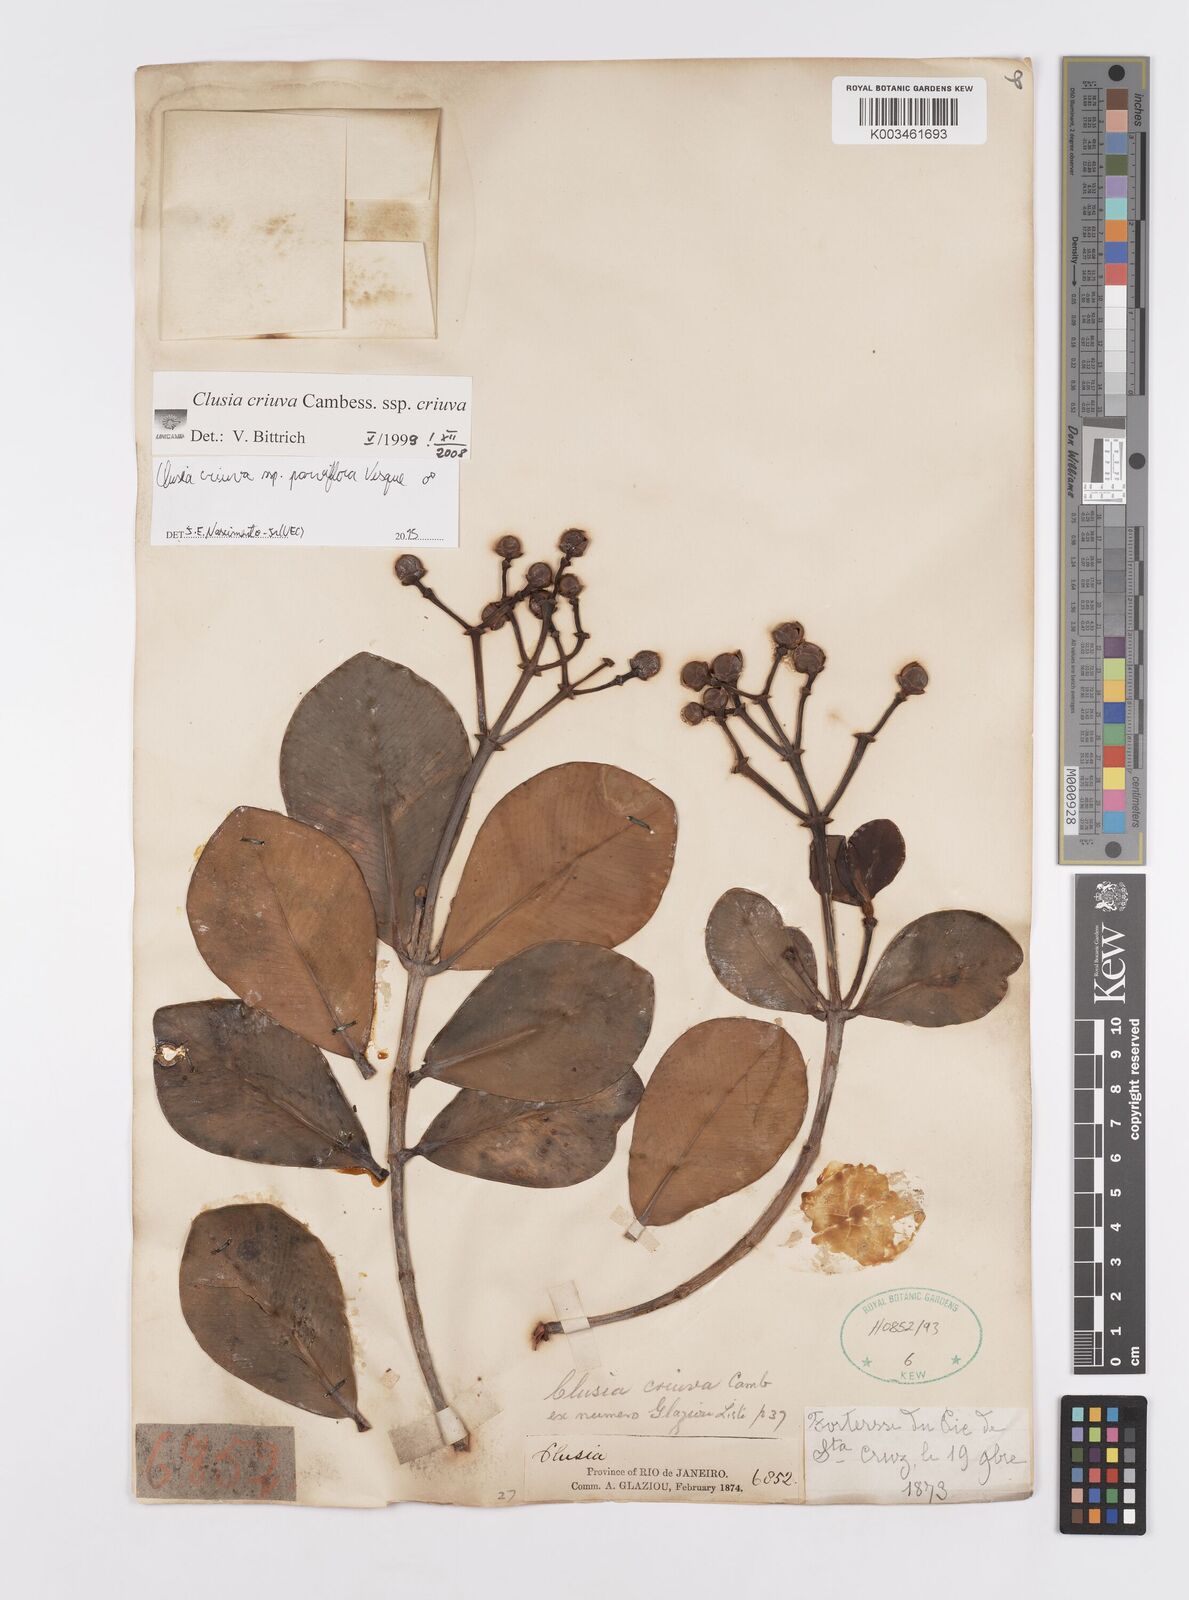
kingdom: Plantae
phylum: Tracheophyta
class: Magnoliopsida
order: Malpighiales
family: Clusiaceae
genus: Clusia
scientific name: Clusia criuva
